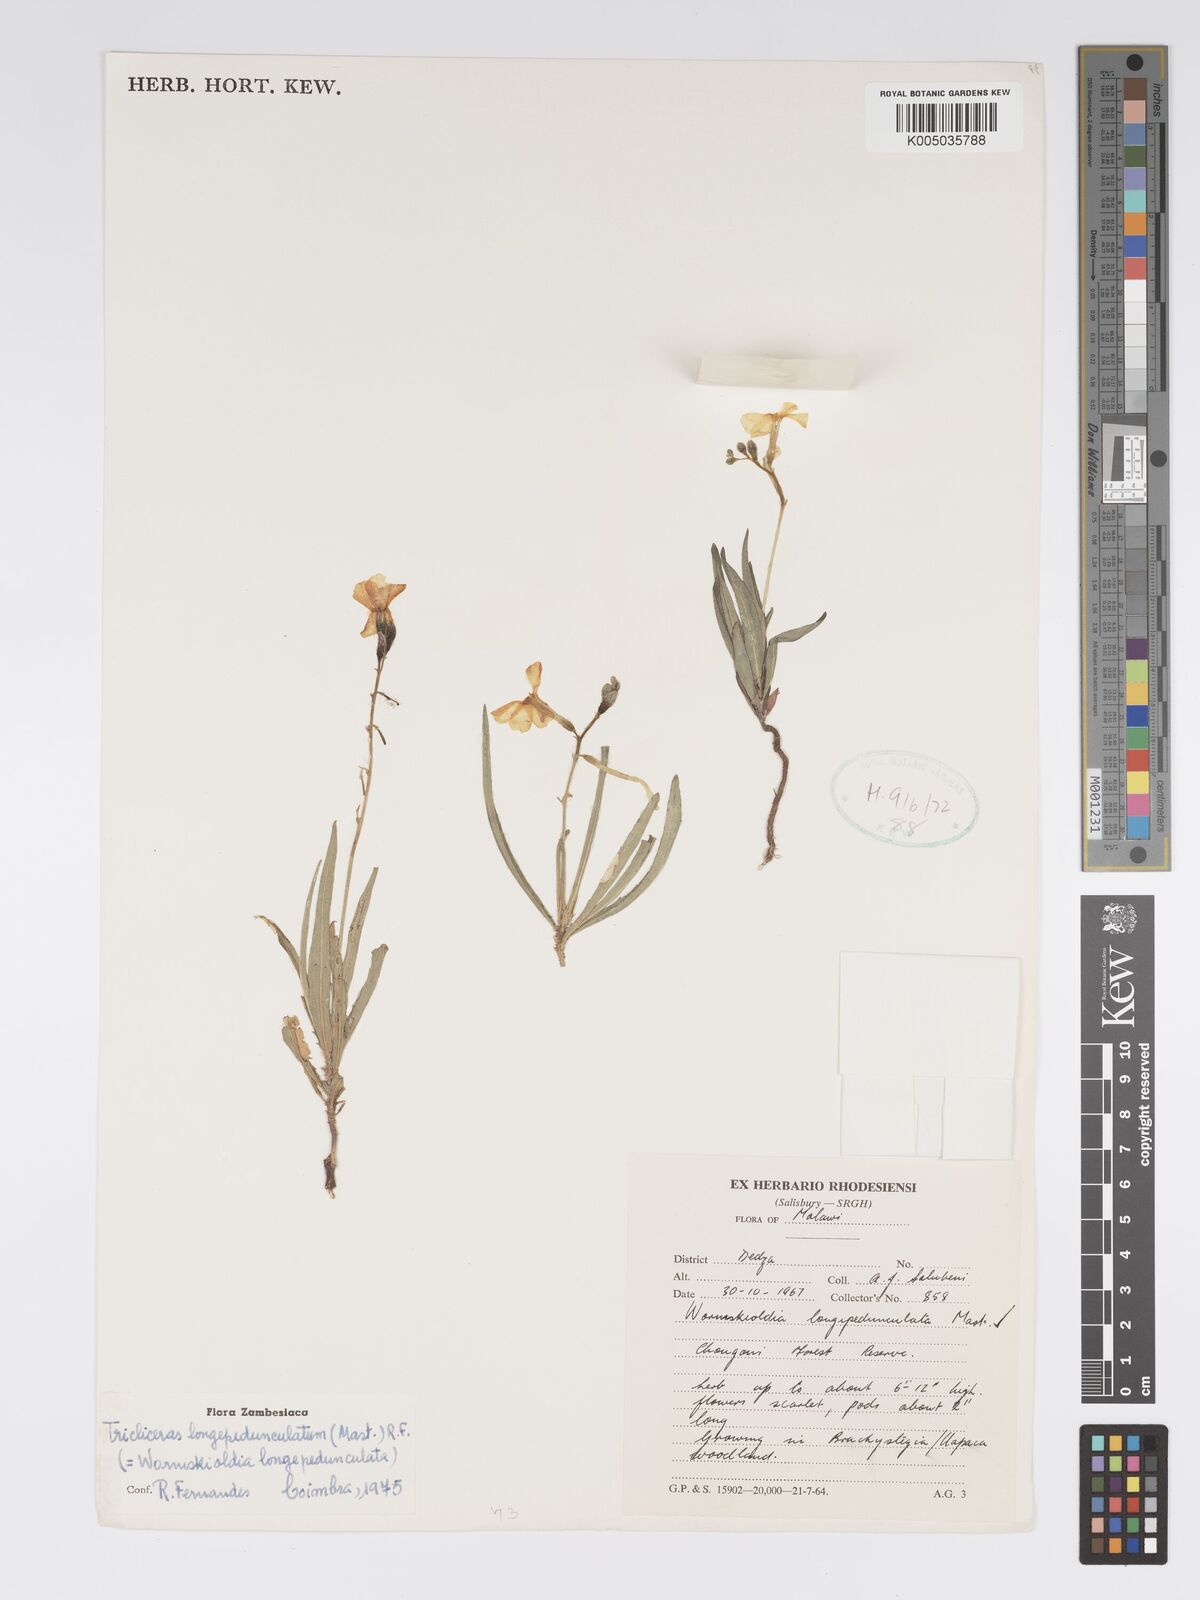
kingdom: Plantae
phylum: Tracheophyta
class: Magnoliopsida
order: Malpighiales
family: Turneraceae
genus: Tricliceras
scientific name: Tricliceras longepedunculatum
